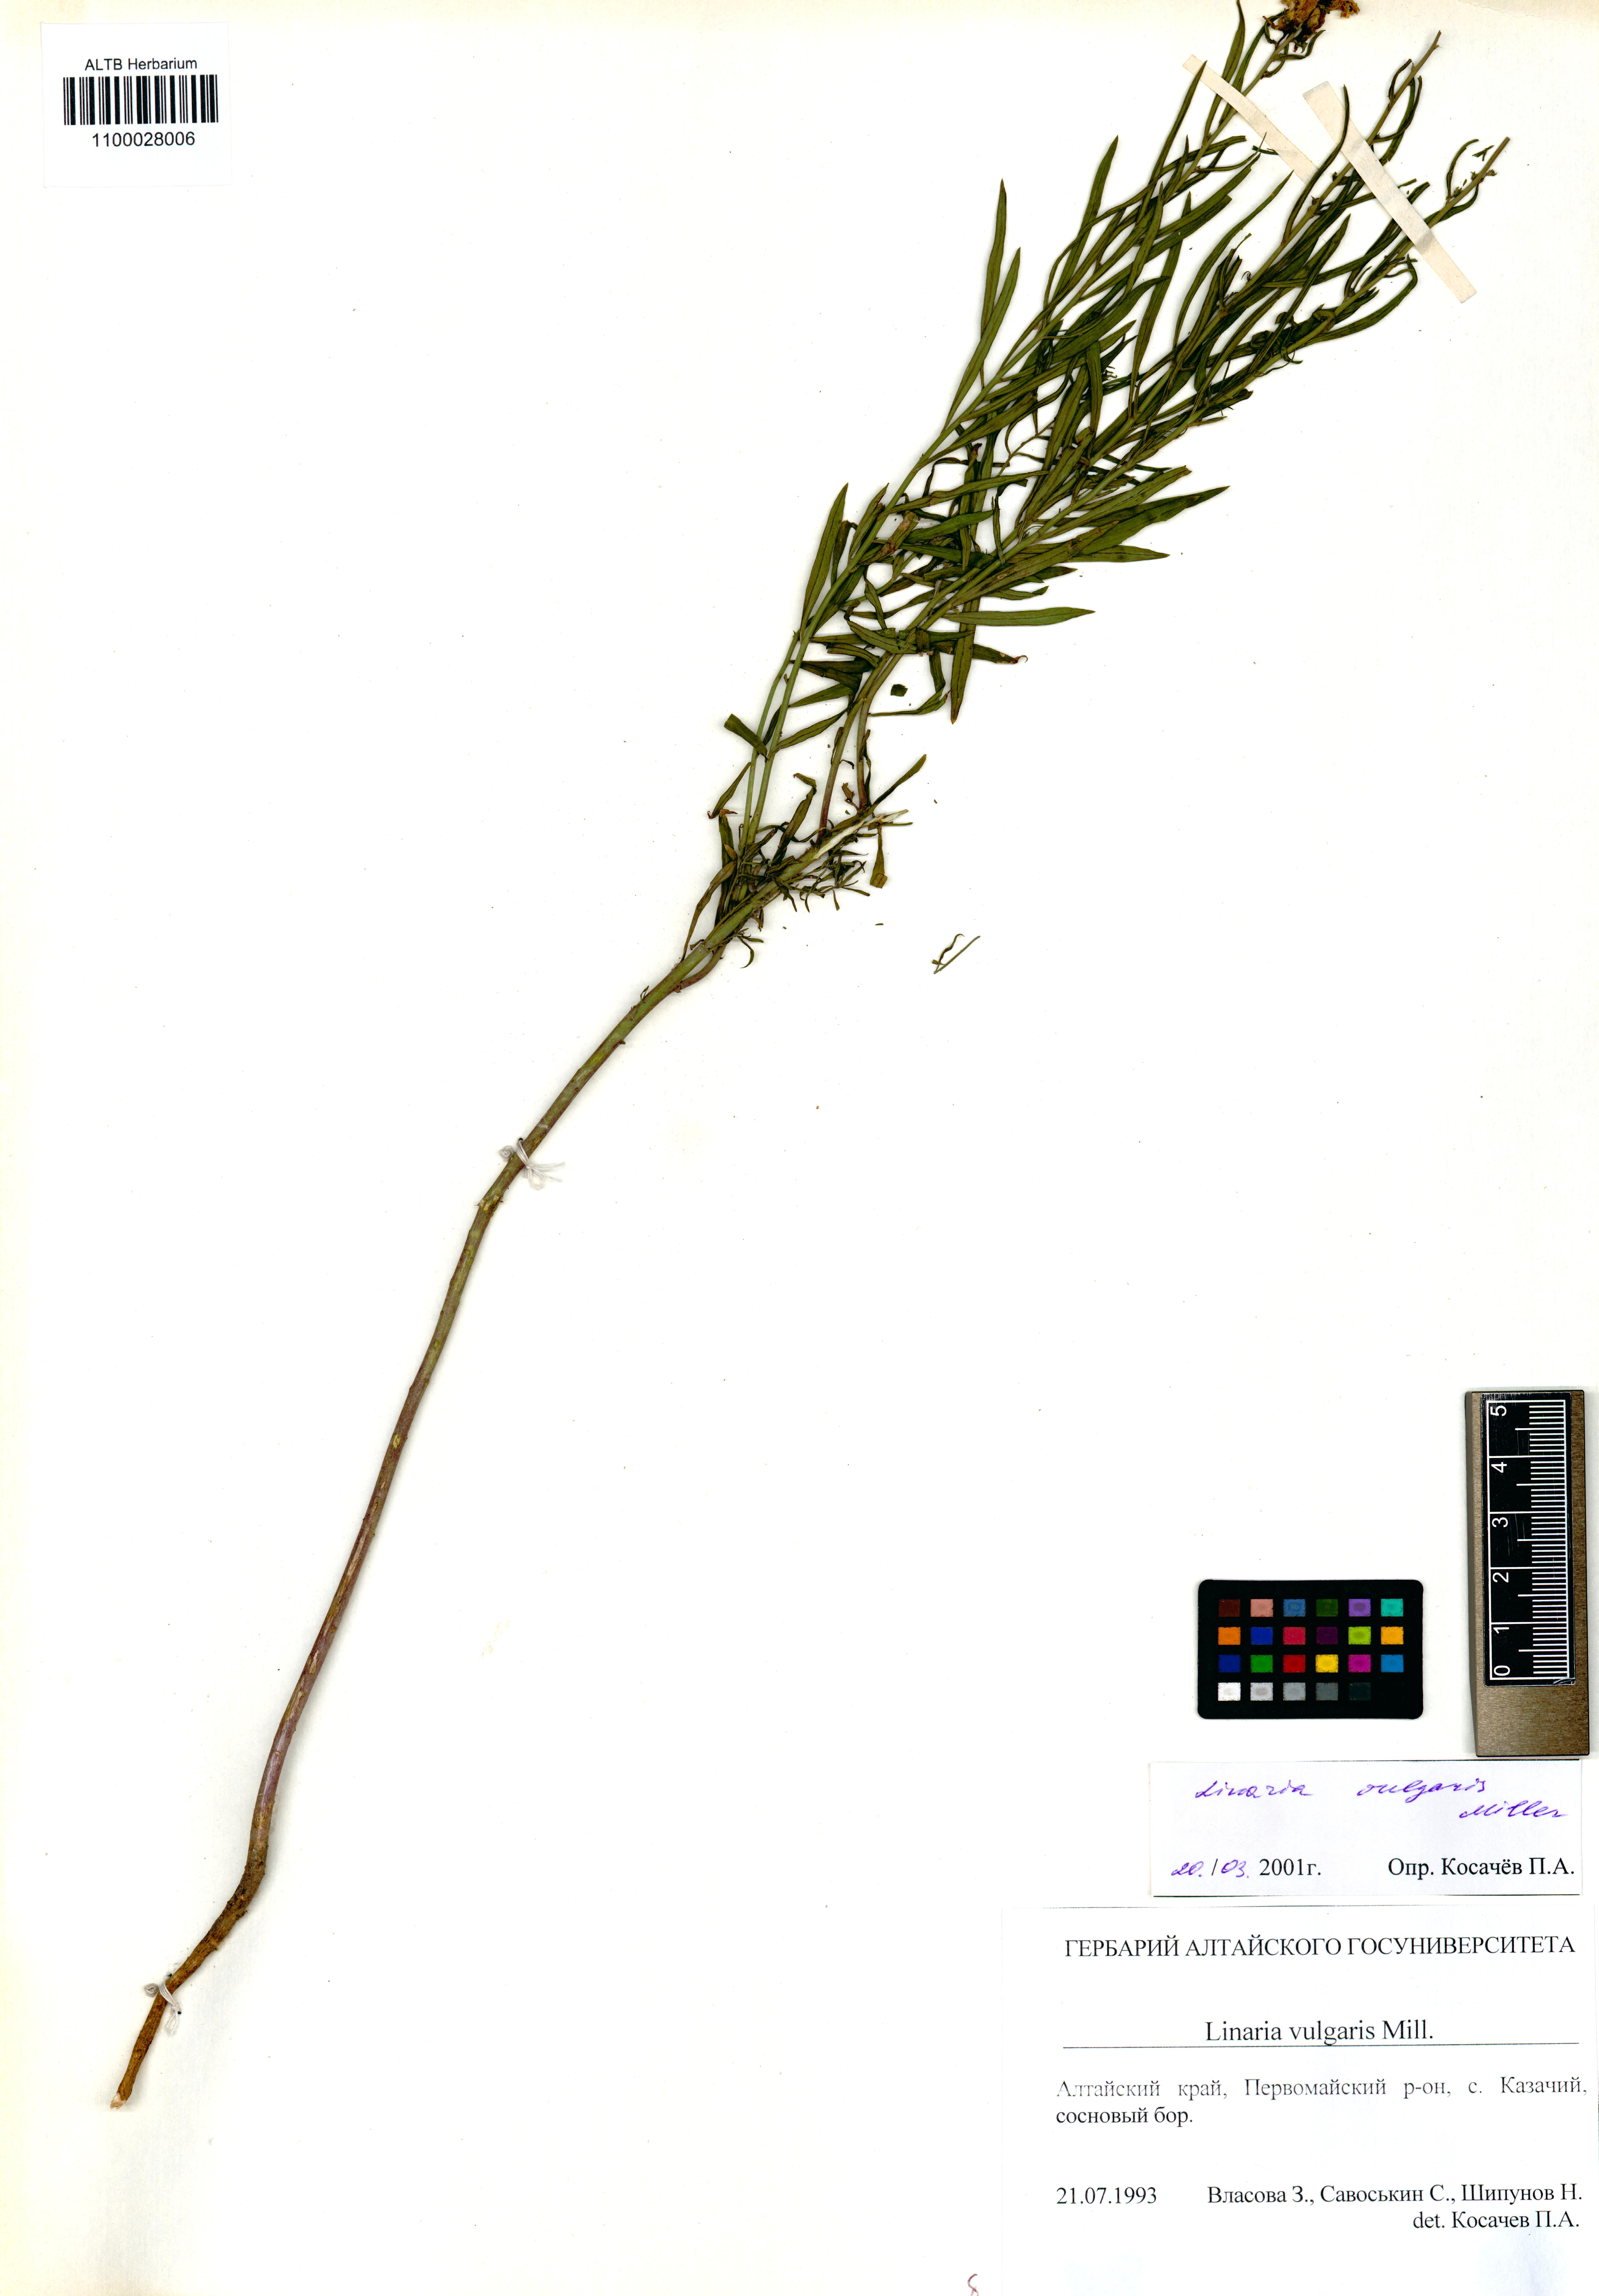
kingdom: Plantae
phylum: Tracheophyta
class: Magnoliopsida
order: Lamiales
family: Plantaginaceae
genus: Linaria
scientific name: Linaria vulgaris
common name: Butter and eggs
